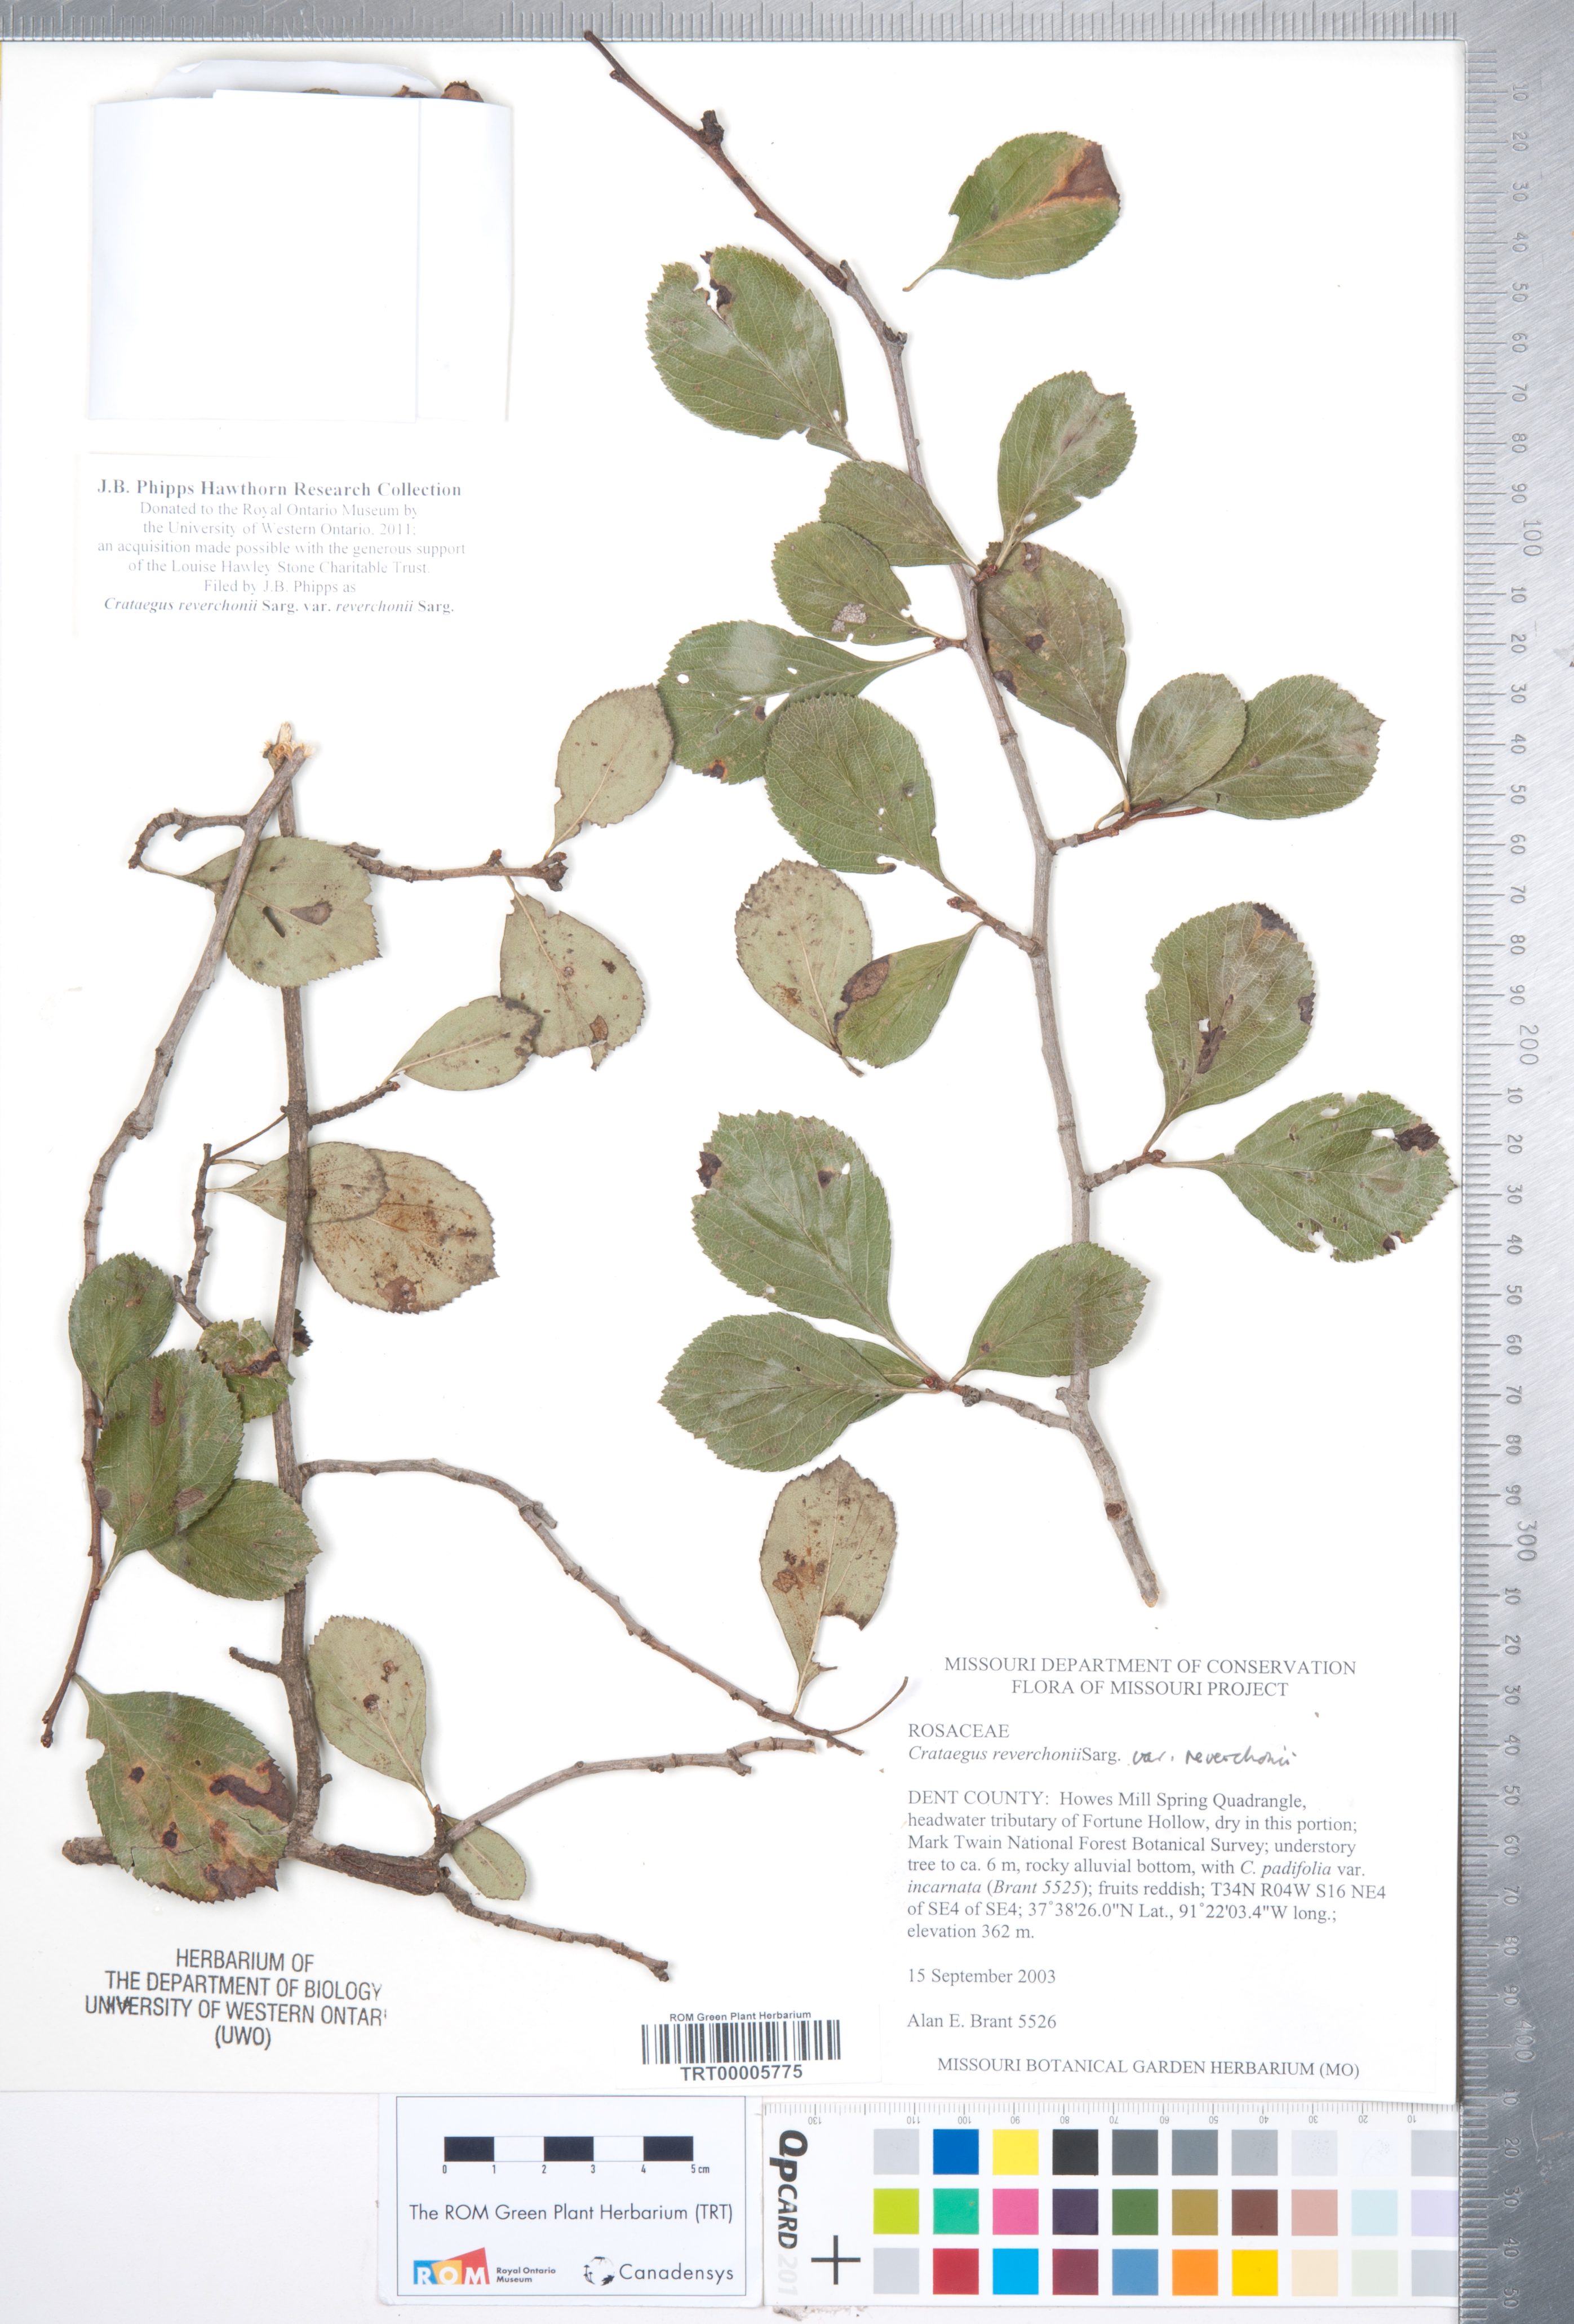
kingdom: Plantae
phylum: Tracheophyta
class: Magnoliopsida
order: Rosales
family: Rosaceae
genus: Crataegus
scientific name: Crataegus reverchonii
